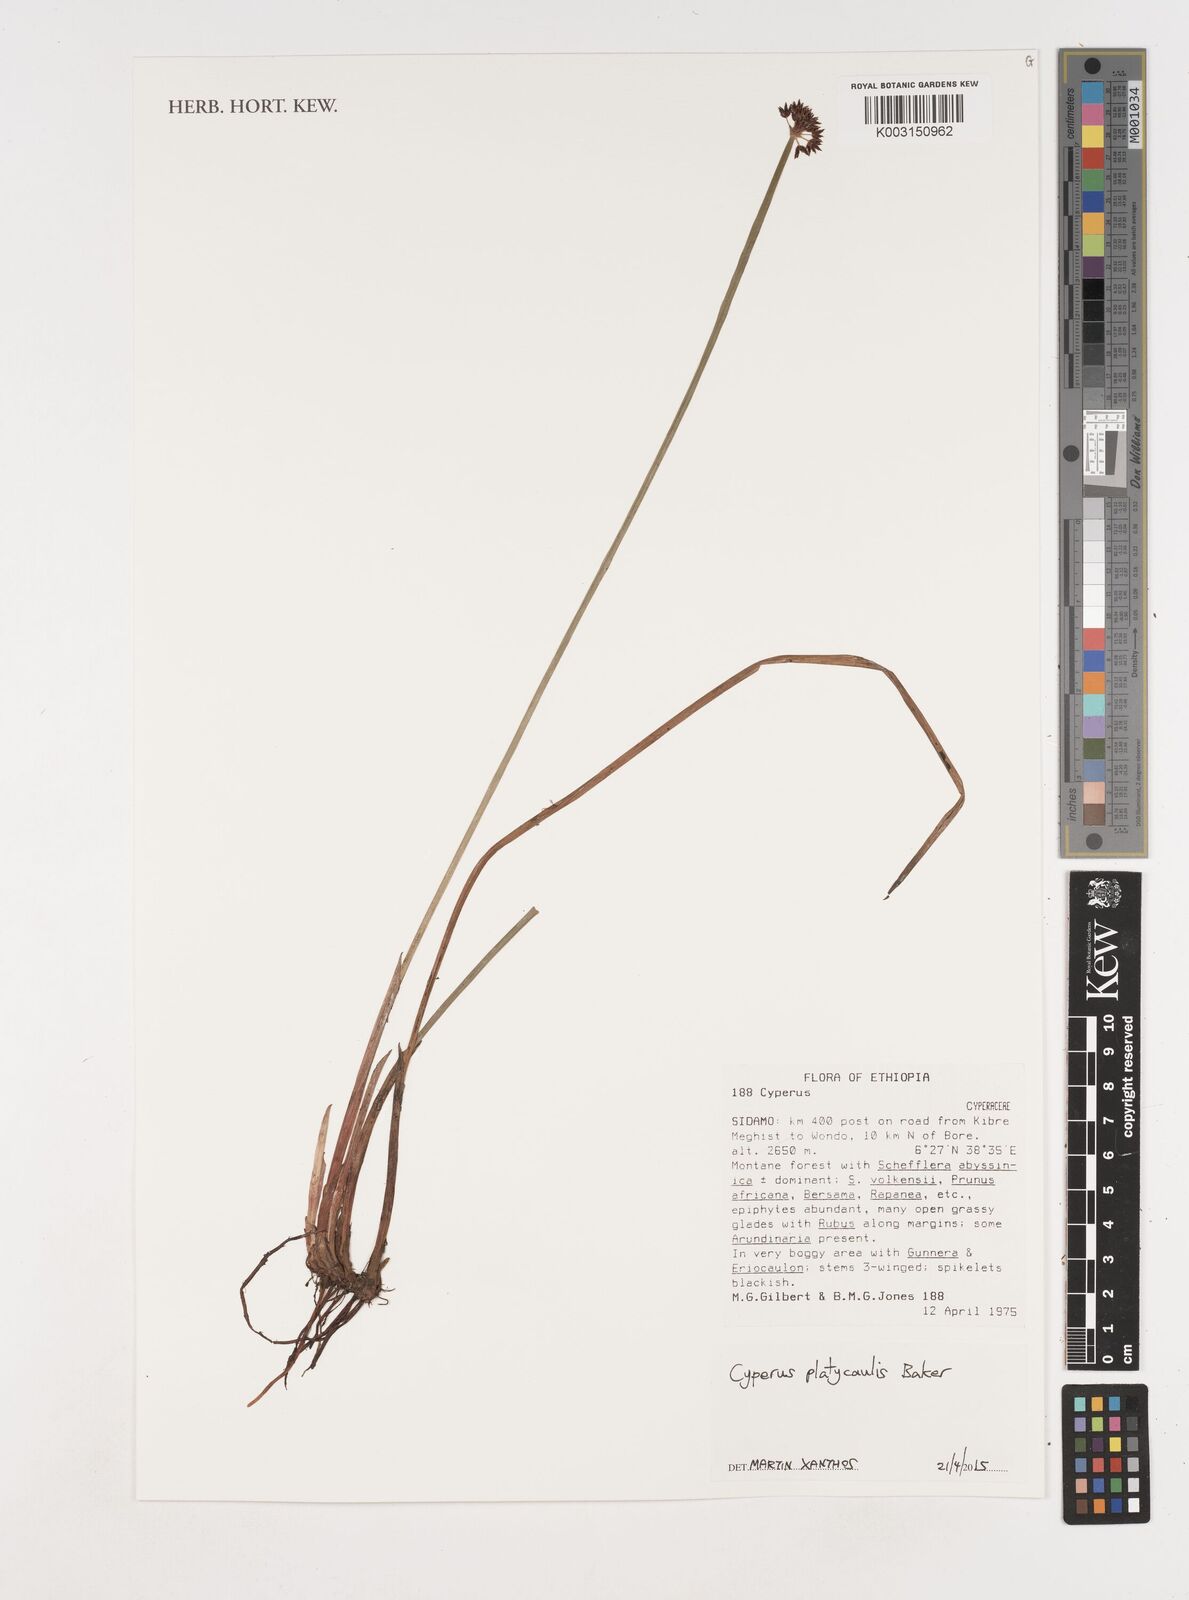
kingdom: Plantae
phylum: Tracheophyta
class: Liliopsida
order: Poales
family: Cyperaceae
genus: Cyperus
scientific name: Cyperus platycaulis
